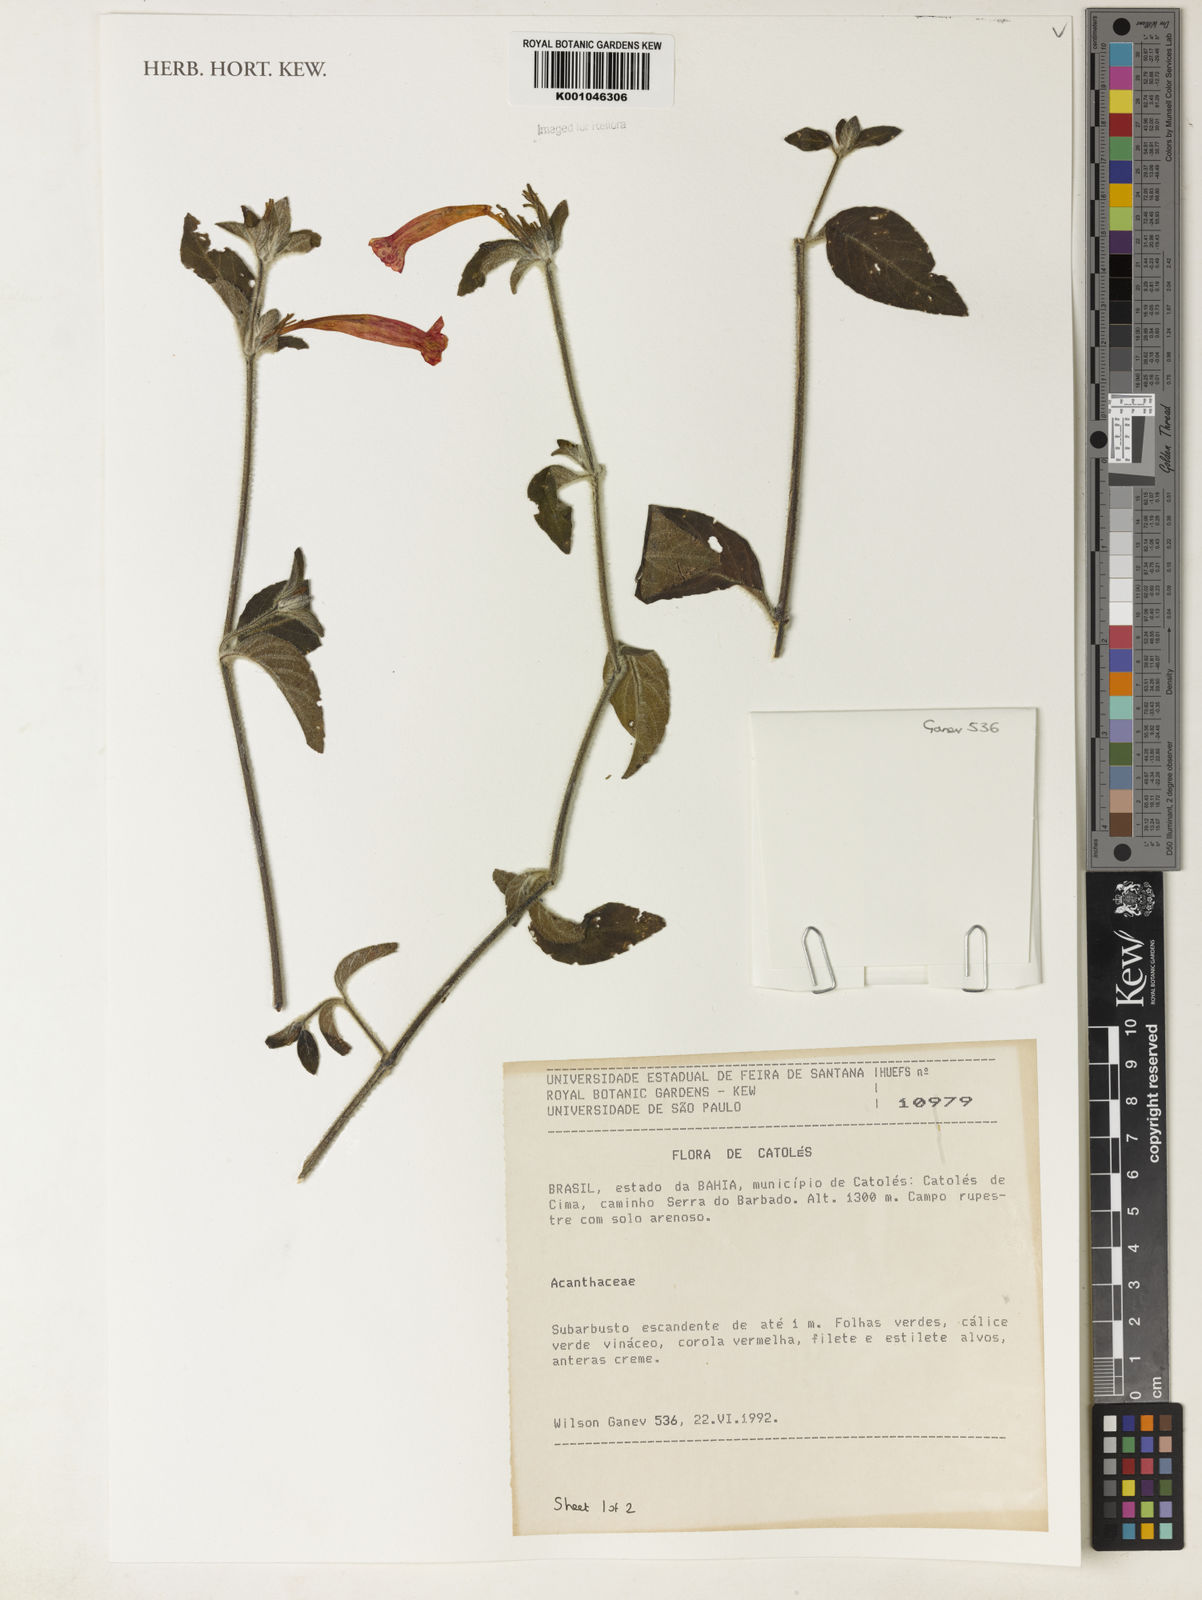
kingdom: Plantae
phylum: Tracheophyta
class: Magnoliopsida
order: Lamiales
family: Acanthaceae
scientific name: Acanthaceae
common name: Acanthaceae
